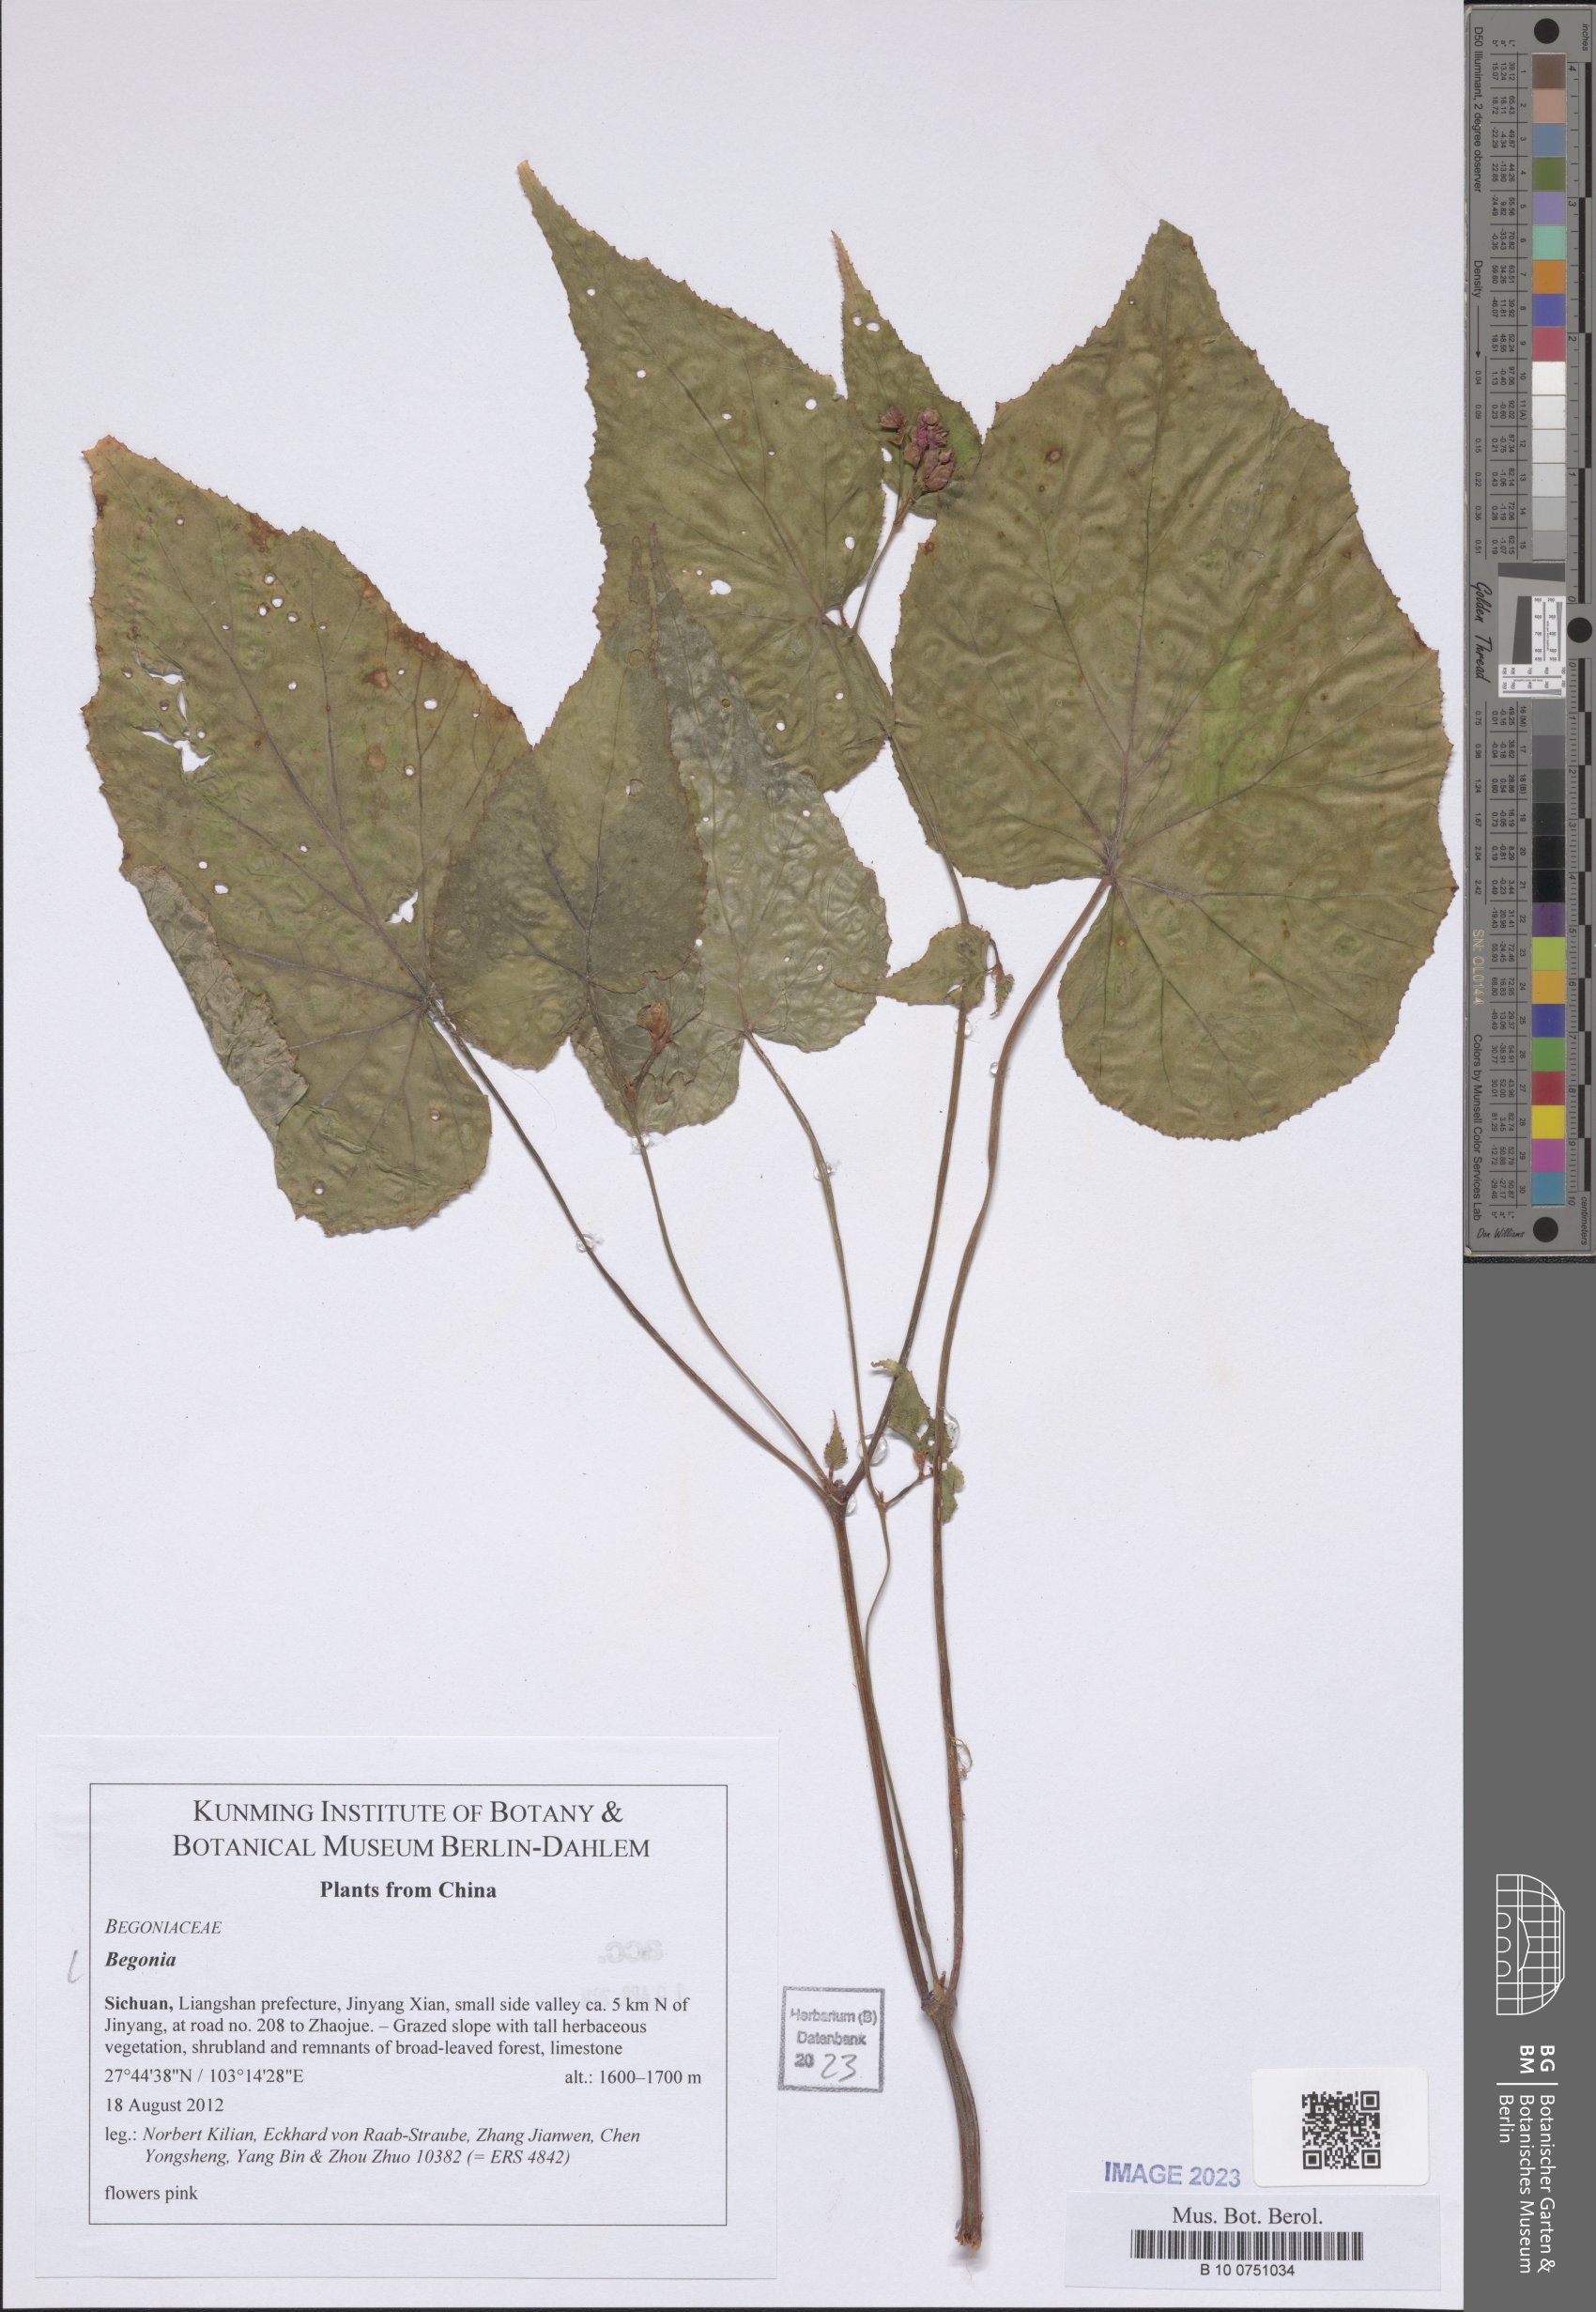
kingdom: Plantae
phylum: Tracheophyta
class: Magnoliopsida
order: Cucurbitales
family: Begoniaceae
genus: Begonia
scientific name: Begonia
